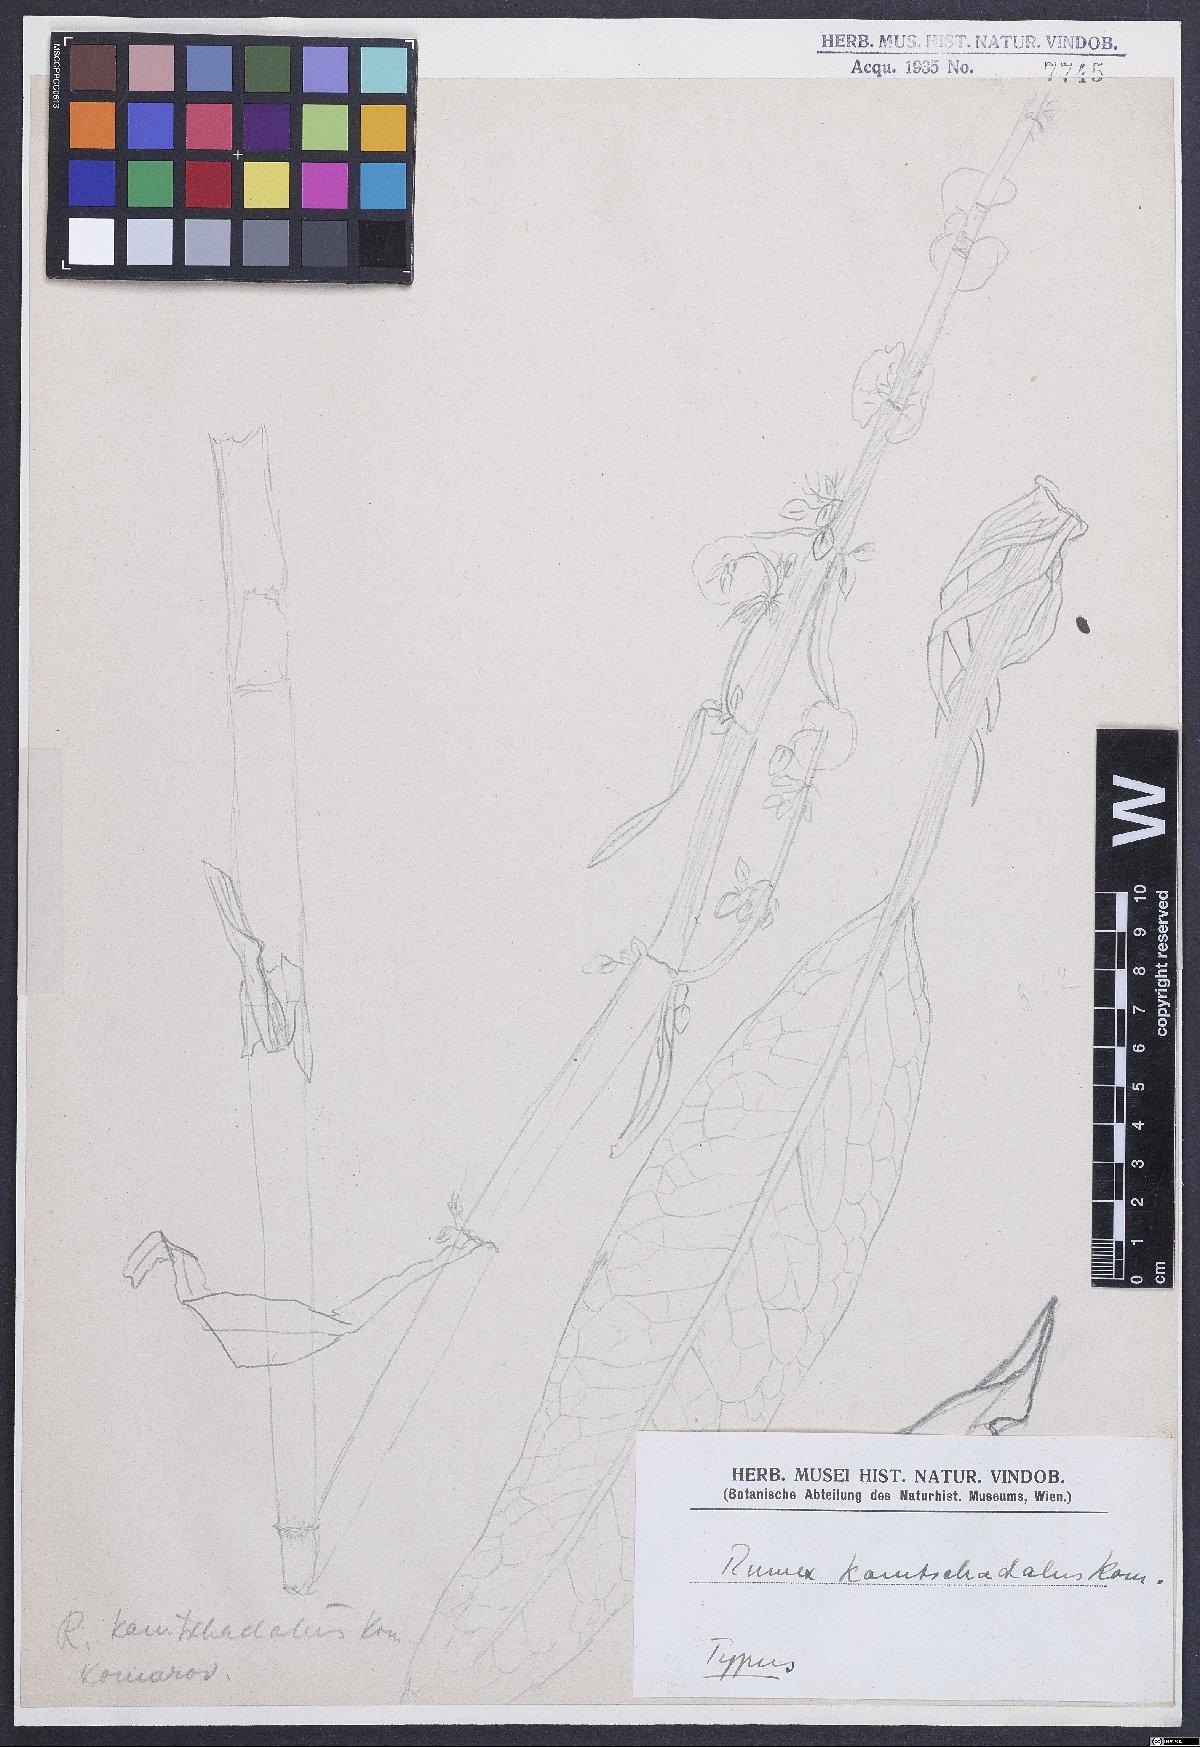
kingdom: Plantae
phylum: Tracheophyta
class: Magnoliopsida
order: Caryophyllales
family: Polygonaceae
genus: Rumex
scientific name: Rumex aquaticus
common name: Scottish dock
